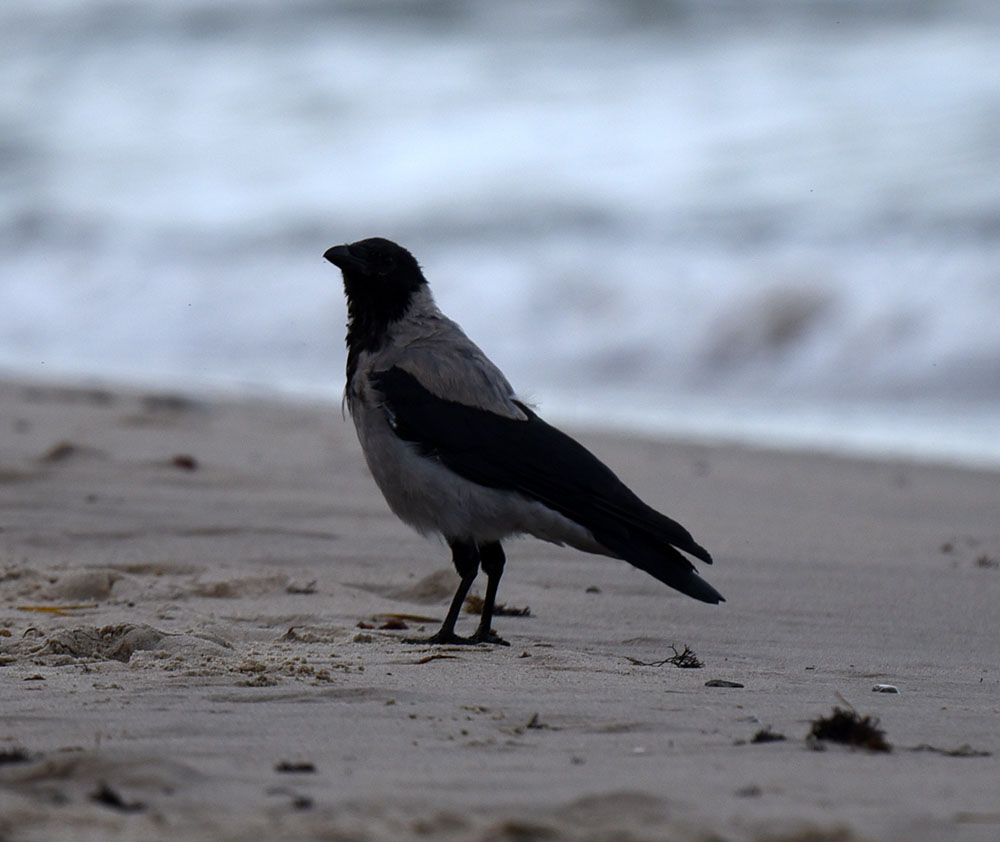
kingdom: Animalia
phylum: Chordata
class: Aves
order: Passeriformes
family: Corvidae
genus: Corvus
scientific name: Corvus cornix
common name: Hooded crow
